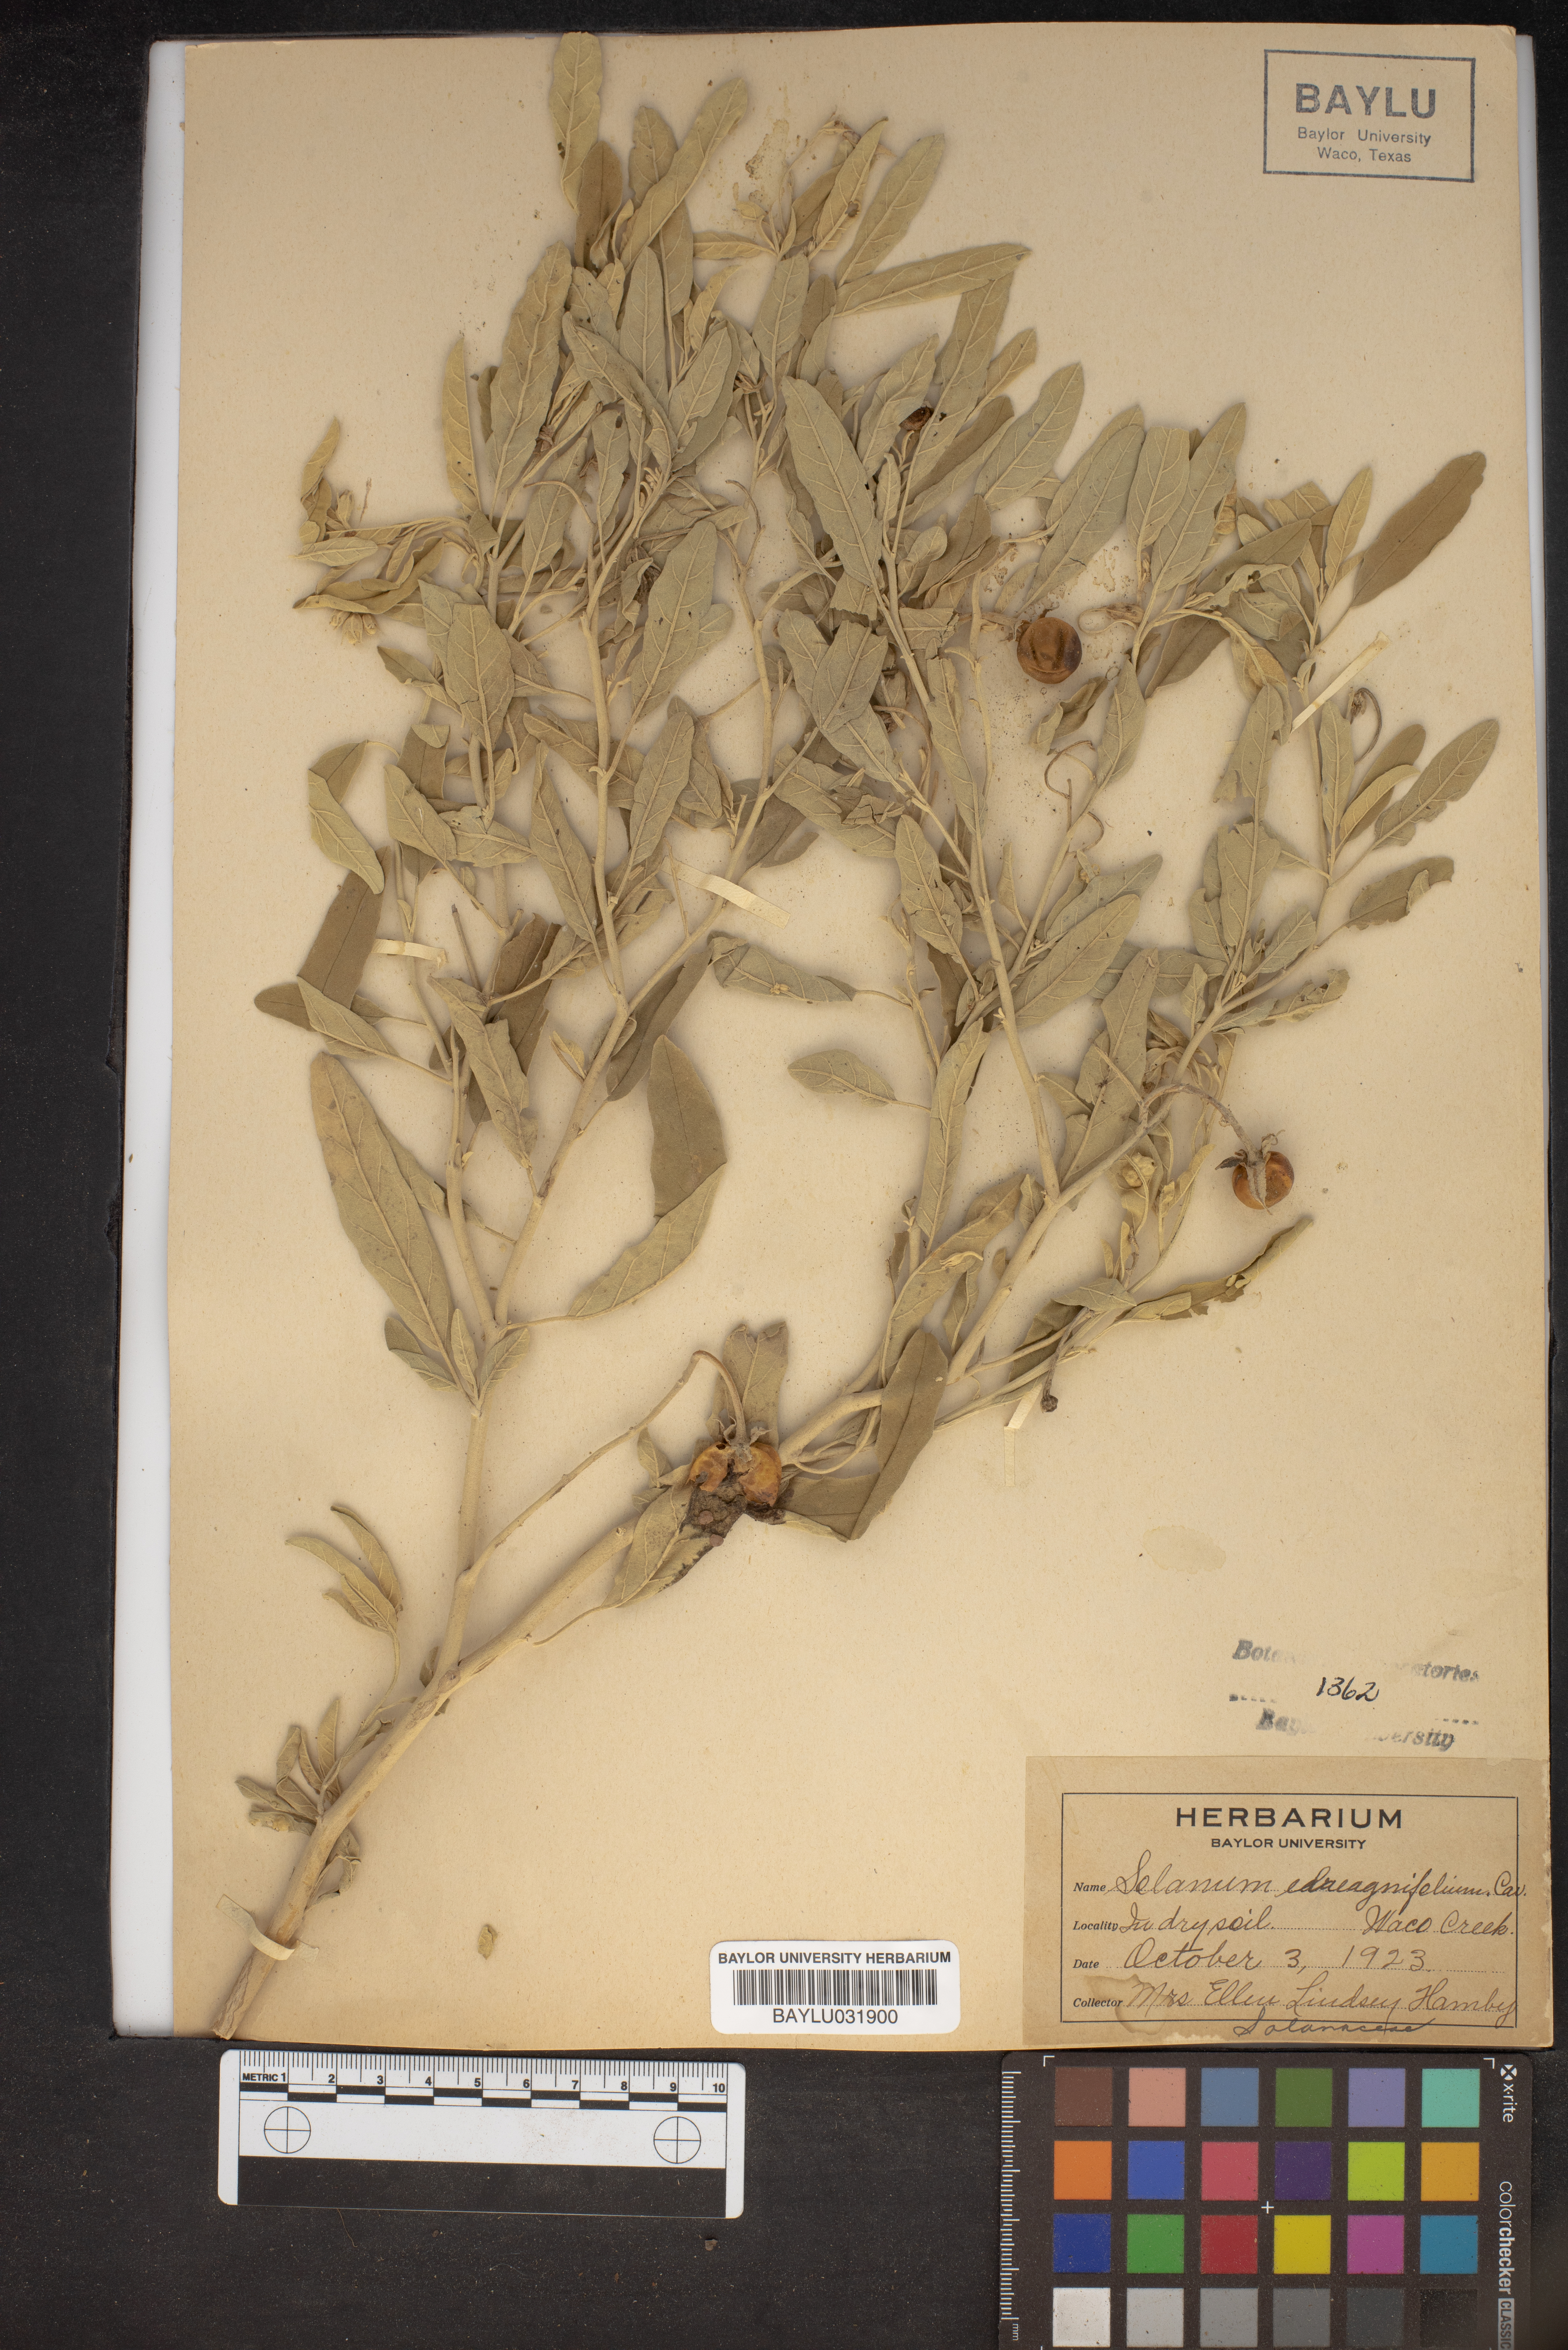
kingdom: Plantae
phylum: Tracheophyta
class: Magnoliopsida
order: Solanales
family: Solanaceae
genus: Solanum
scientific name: Solanum elaeagnifolium
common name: Silverleaf nightshade
